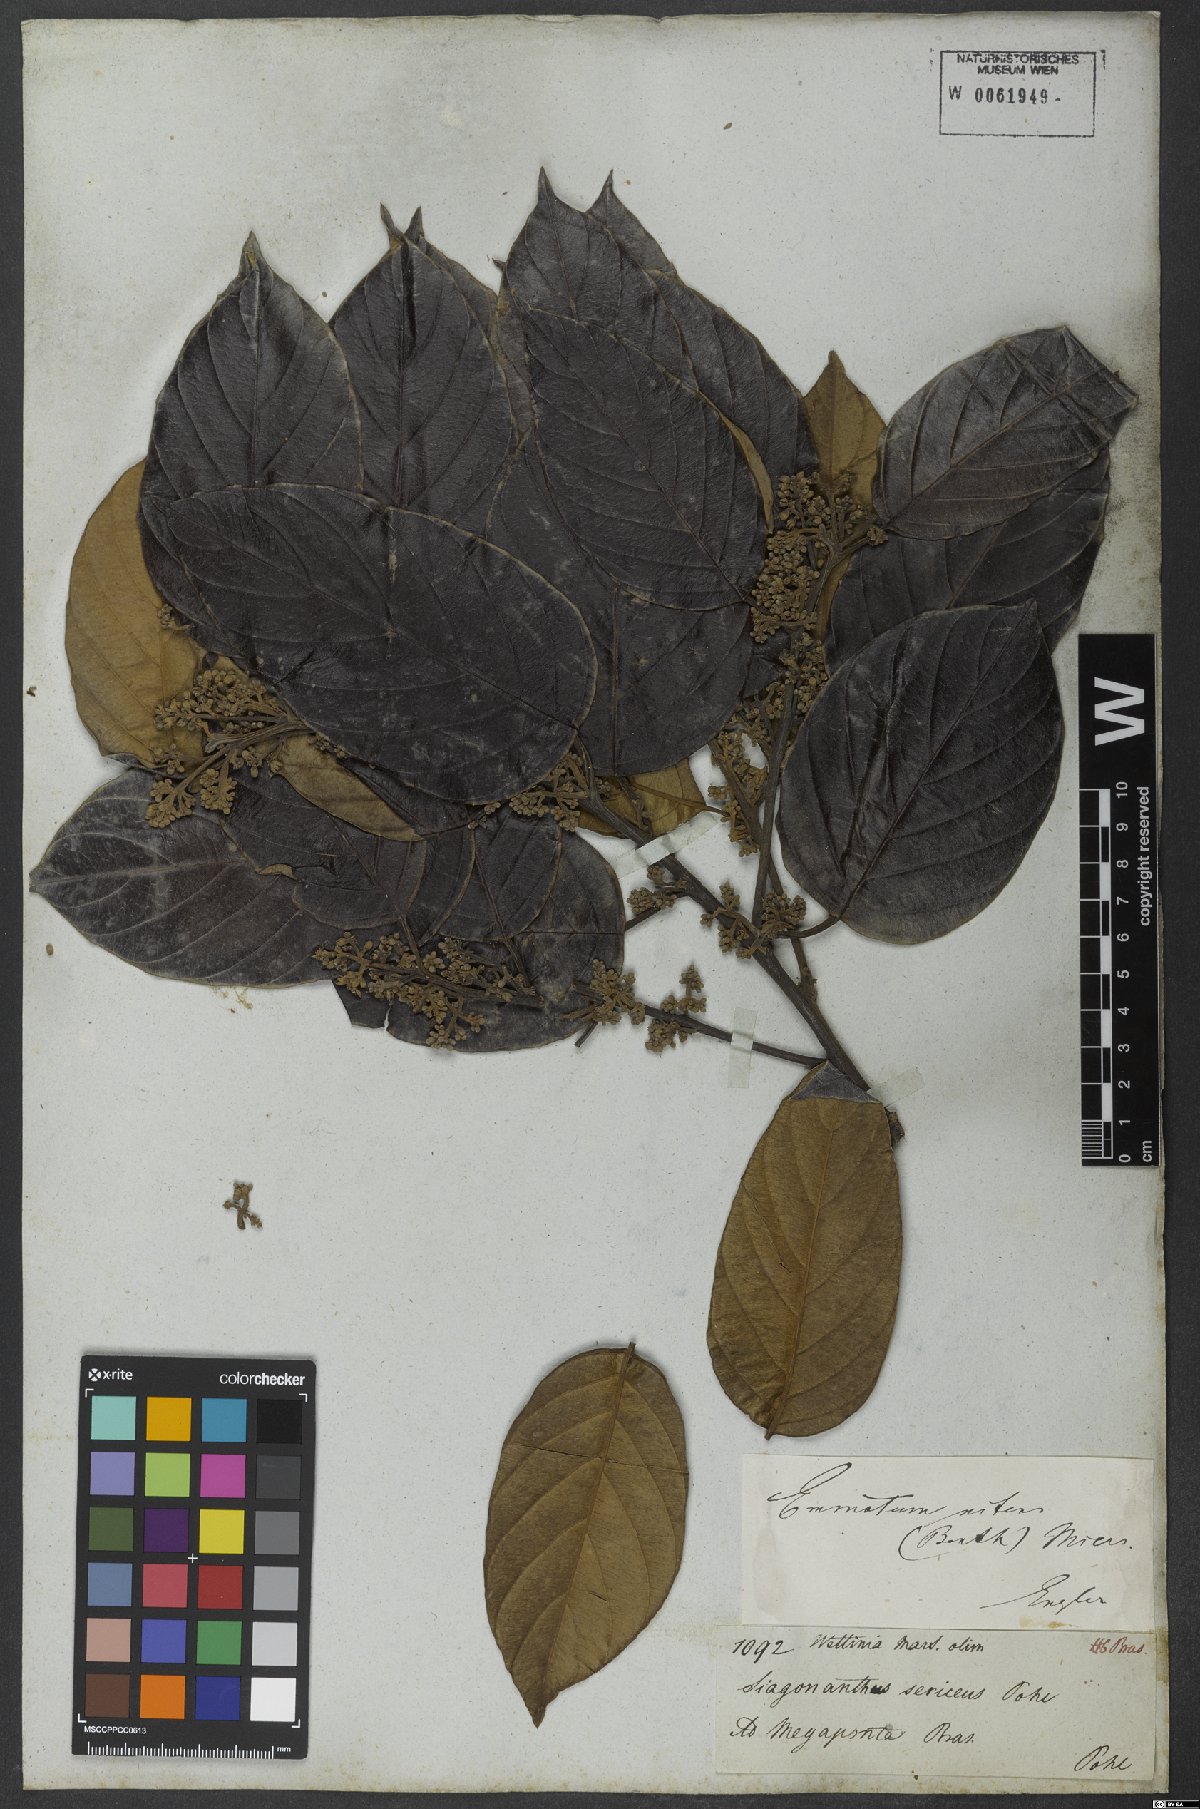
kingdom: Plantae
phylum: Tracheophyta
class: Magnoliopsida
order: Metteniusales
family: Metteniusaceae
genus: Emmotum
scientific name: Emmotum nitens
